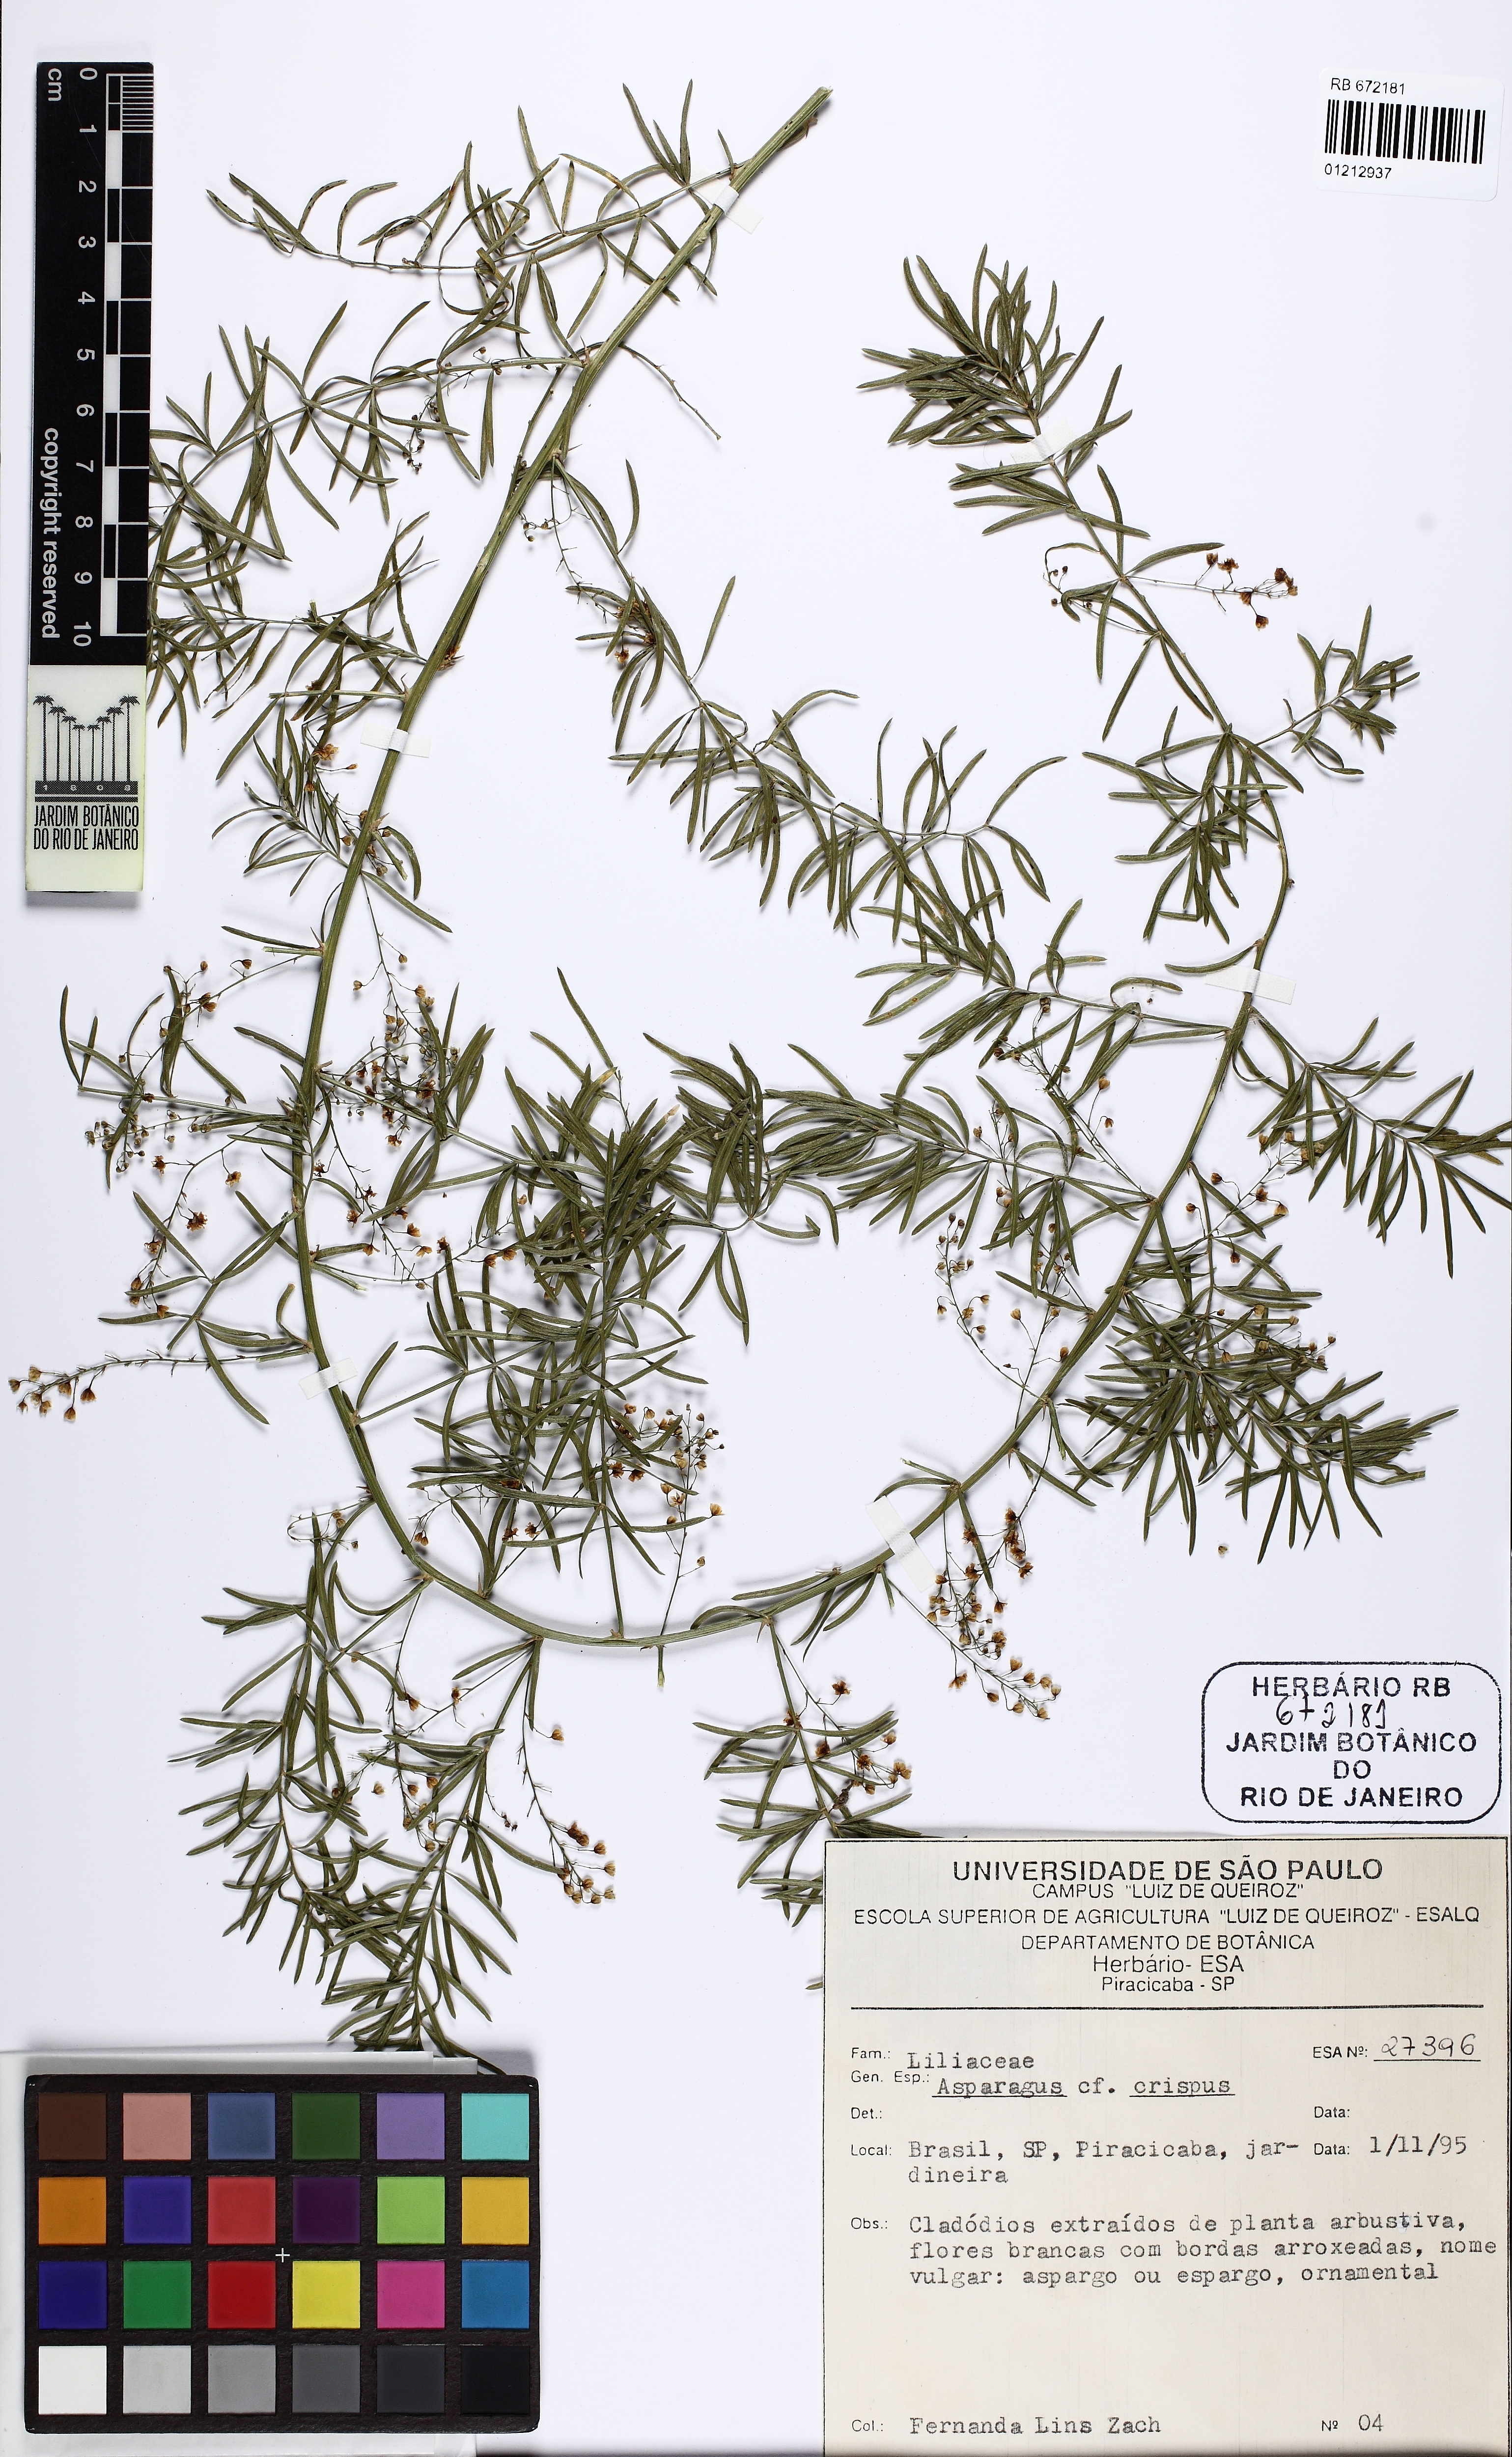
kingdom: Plantae
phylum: Tracheophyta
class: Liliopsida
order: Asparagales
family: Asparagaceae
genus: Asparagus
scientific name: Asparagus declinatus
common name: Bridal-creeper
